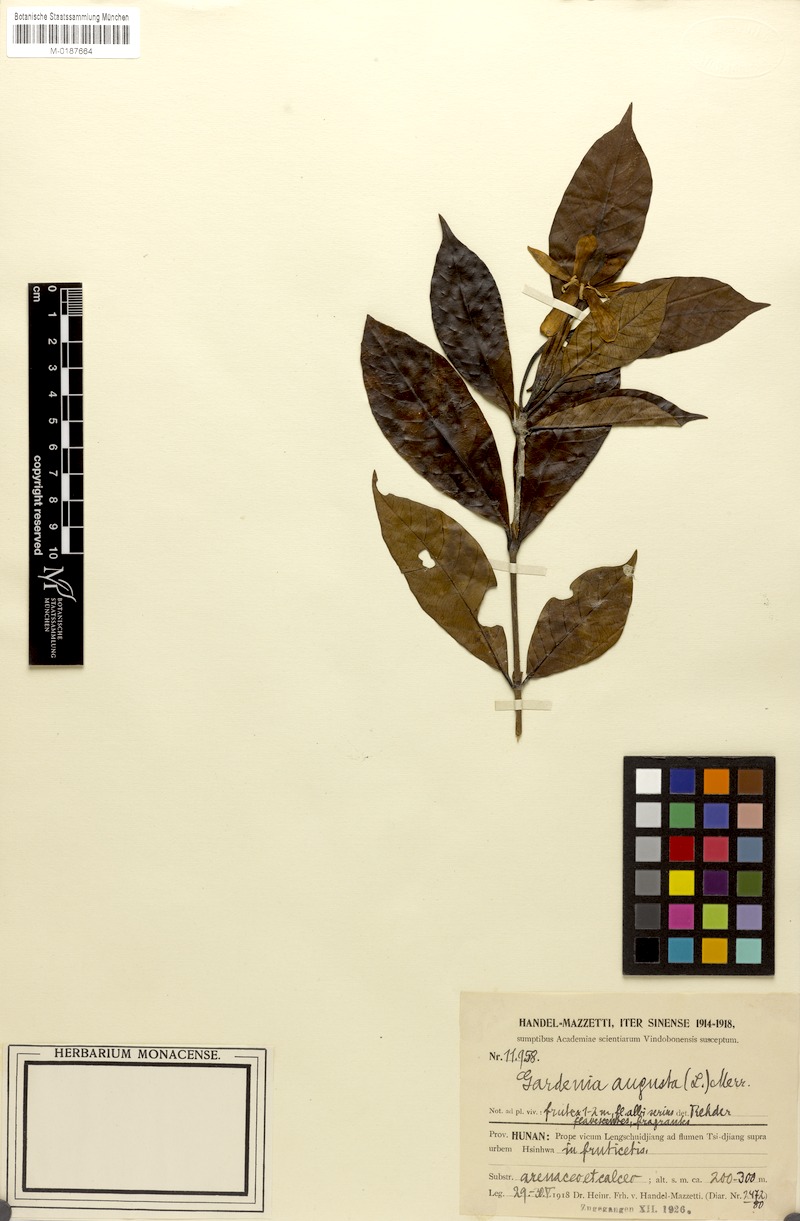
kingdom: Plantae
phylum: Tracheophyta
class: Magnoliopsida
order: Gentianales
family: Rubiaceae
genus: Gardenia
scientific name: Gardenia jasminoides
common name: Cape-jasmine
